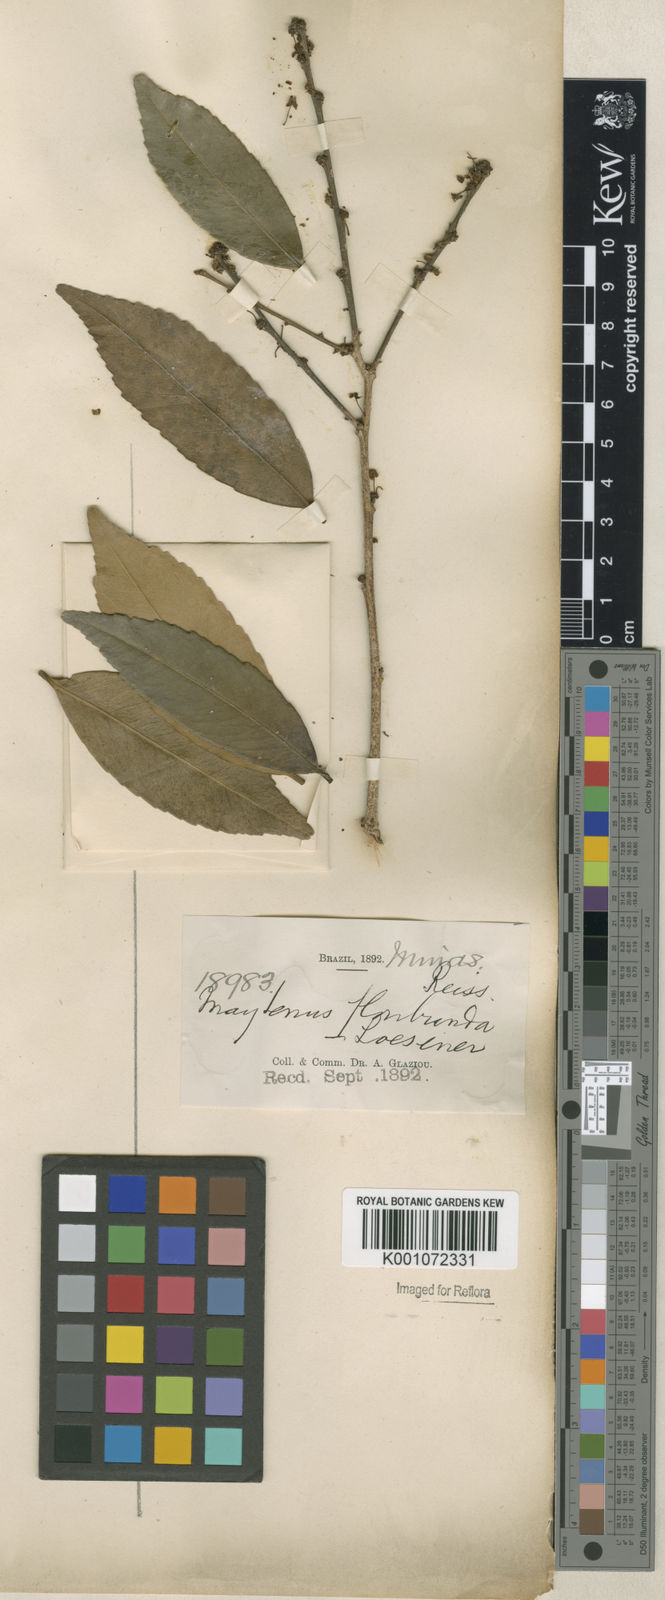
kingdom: Plantae
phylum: Tracheophyta
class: Magnoliopsida
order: Celastrales
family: Celastraceae
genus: Monteverdia
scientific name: Monteverdia floribunda
